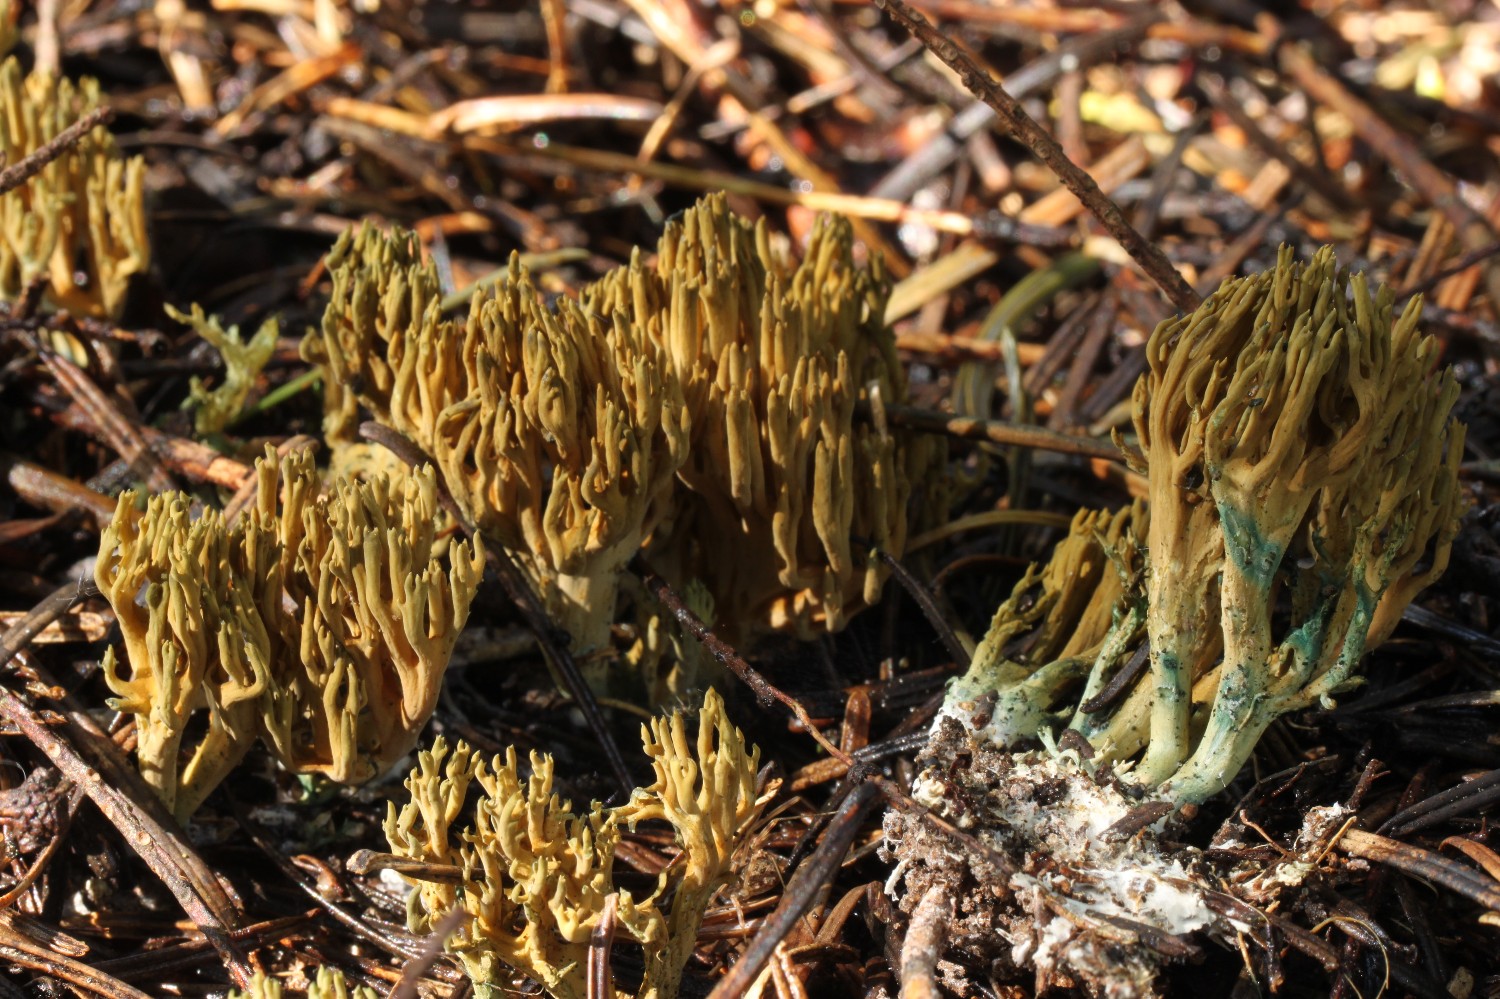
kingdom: Fungi
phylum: Basidiomycota
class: Agaricomycetes
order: Gomphales
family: Gomphaceae
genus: Phaeoclavulina
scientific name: Phaeoclavulina abietina
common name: gulgrøn koralsvamp
